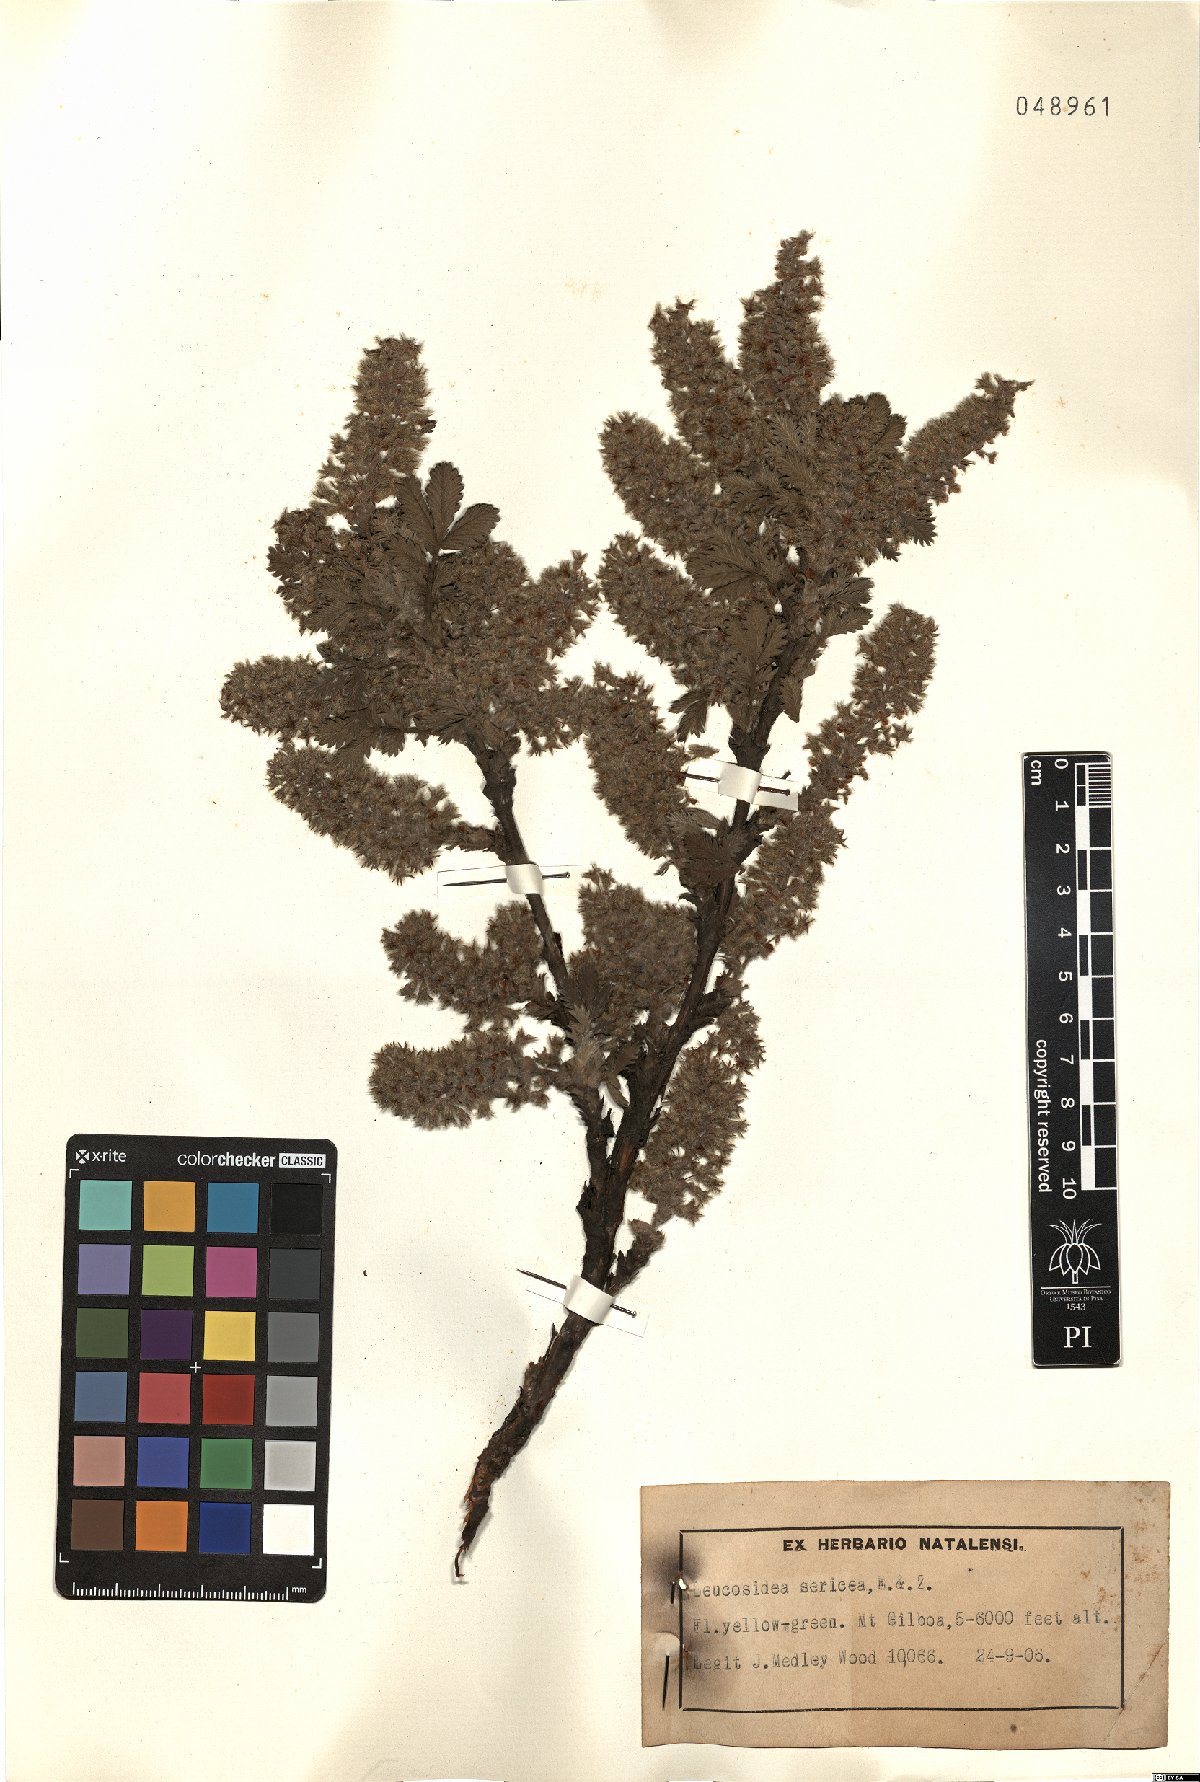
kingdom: Plantae
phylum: Tracheophyta
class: Magnoliopsida
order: Rosales
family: Rosaceae
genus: Leucosidea
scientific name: Leucosidea sericea
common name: Oldwood
